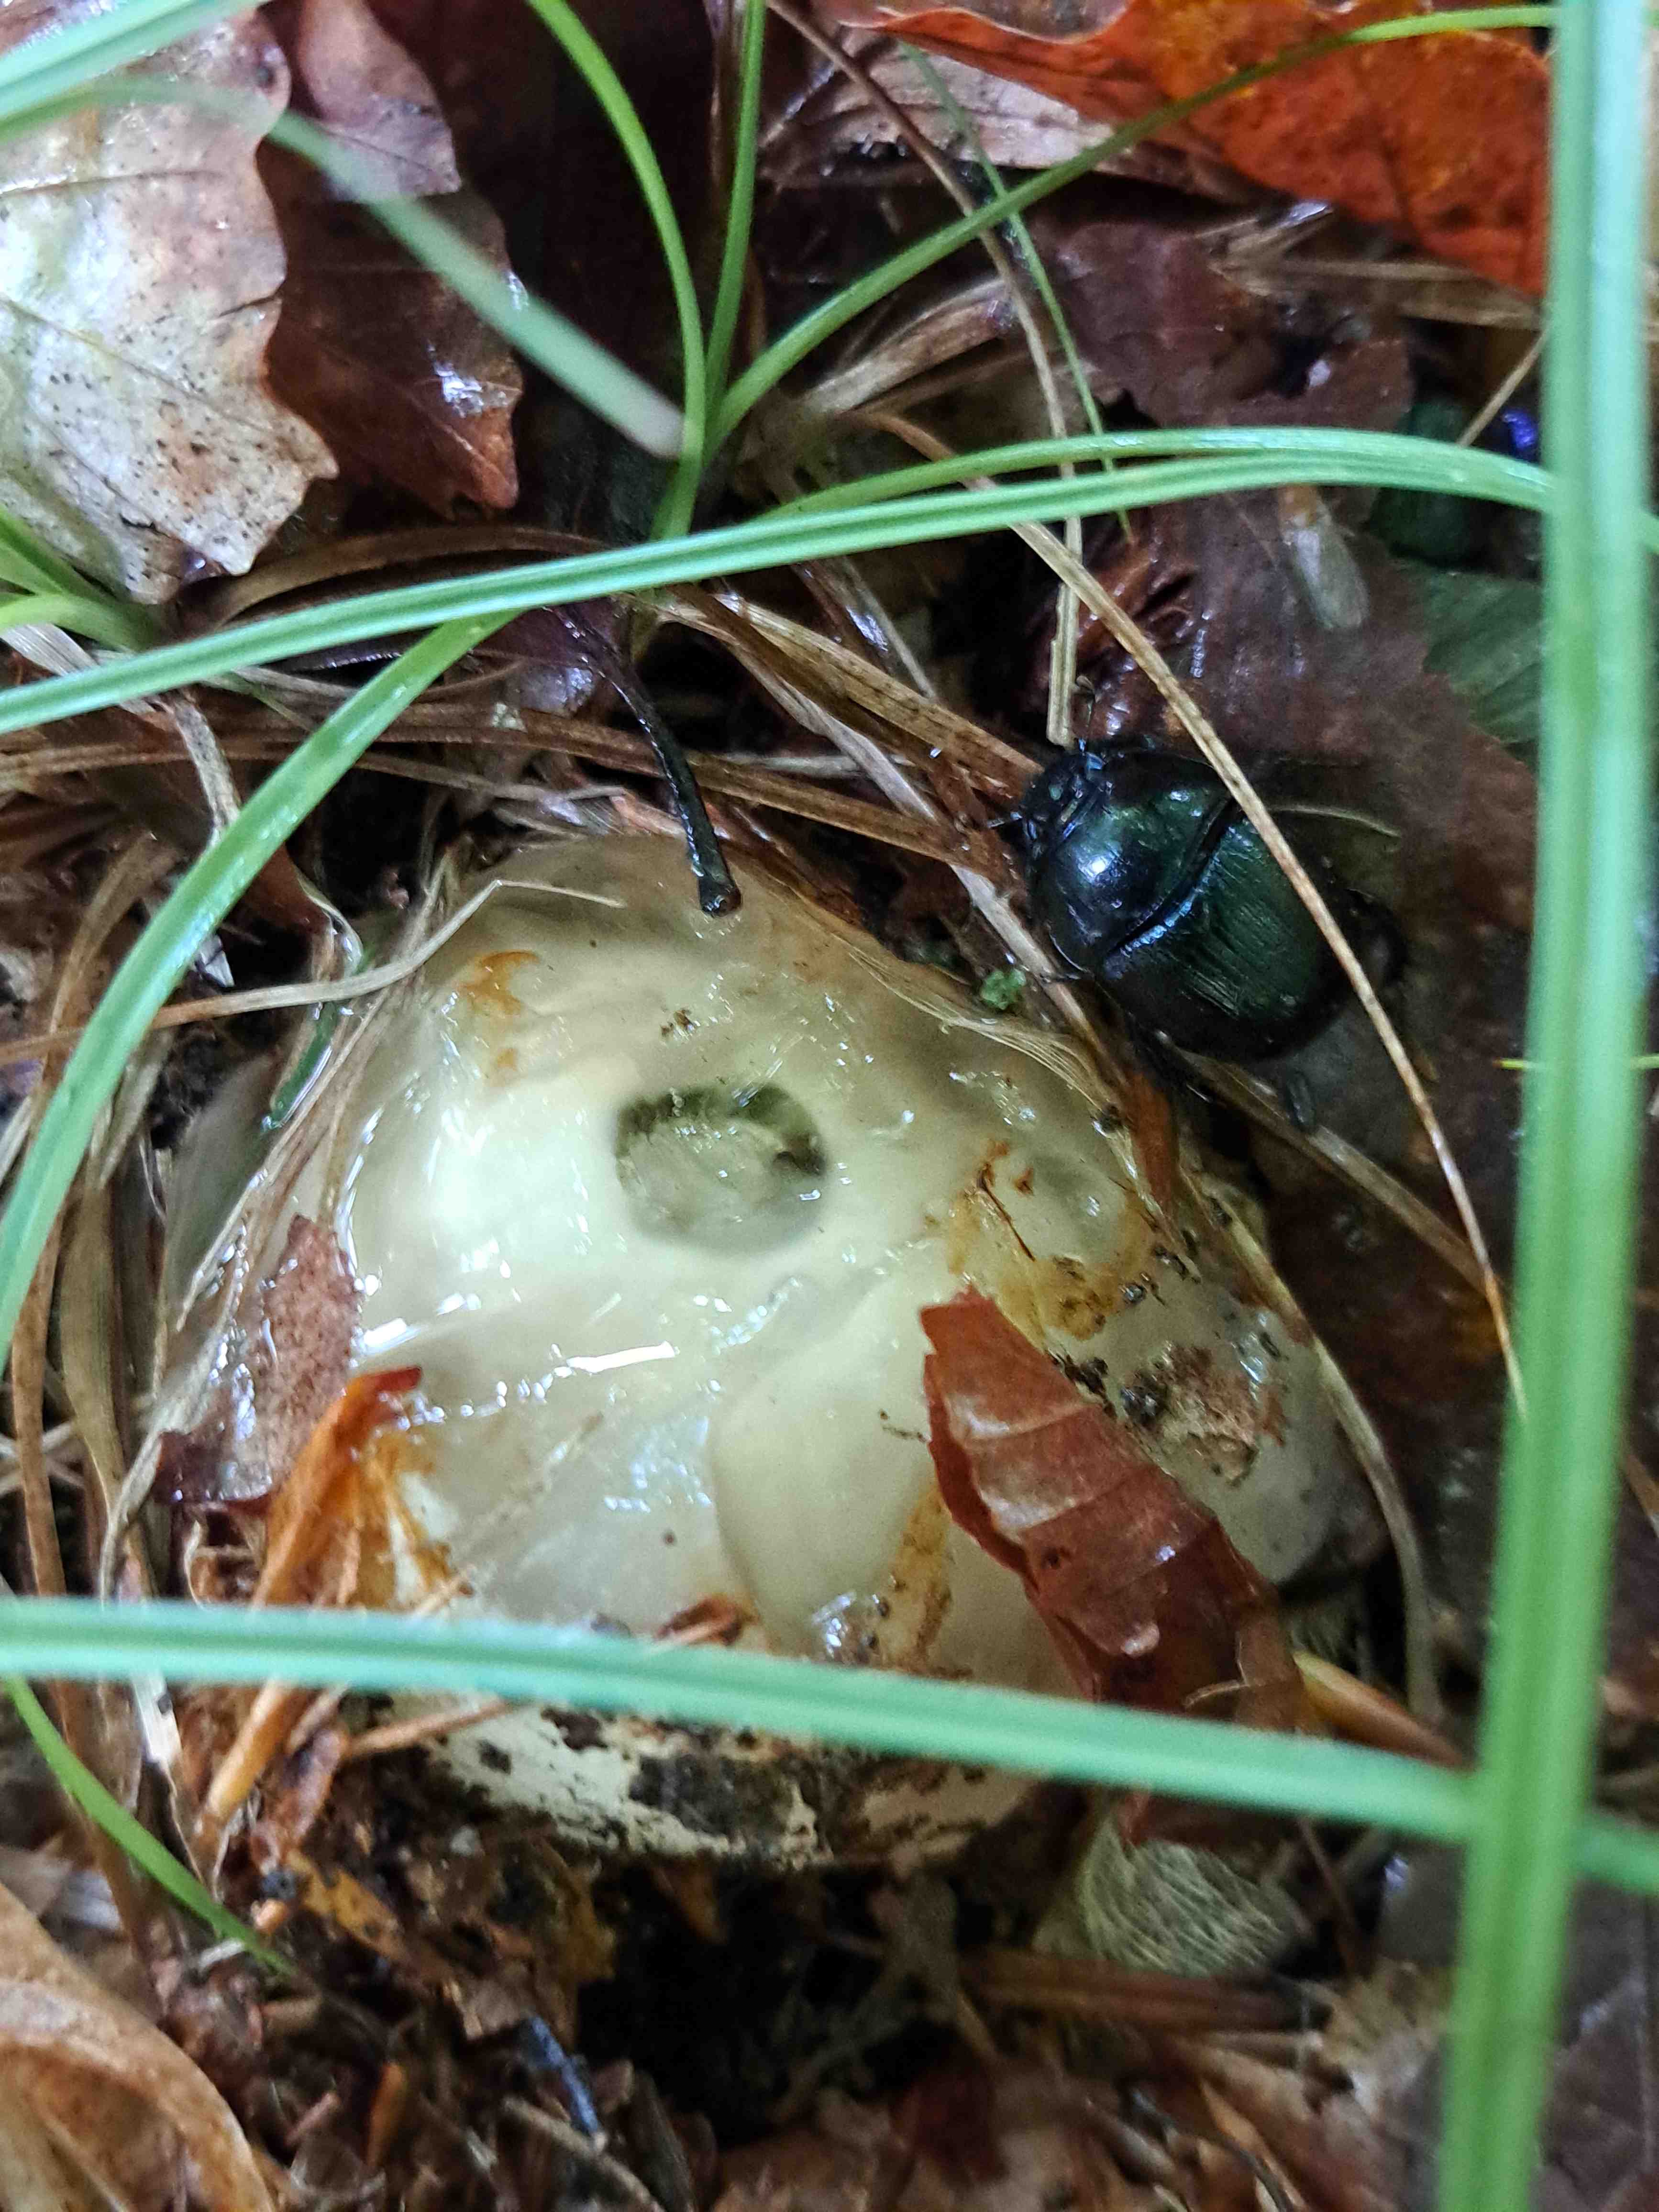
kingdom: Fungi
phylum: Basidiomycota
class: Agaricomycetes
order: Phallales
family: Phallaceae
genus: Phallus
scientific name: Phallus impudicus
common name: almindelig stinksvamp
